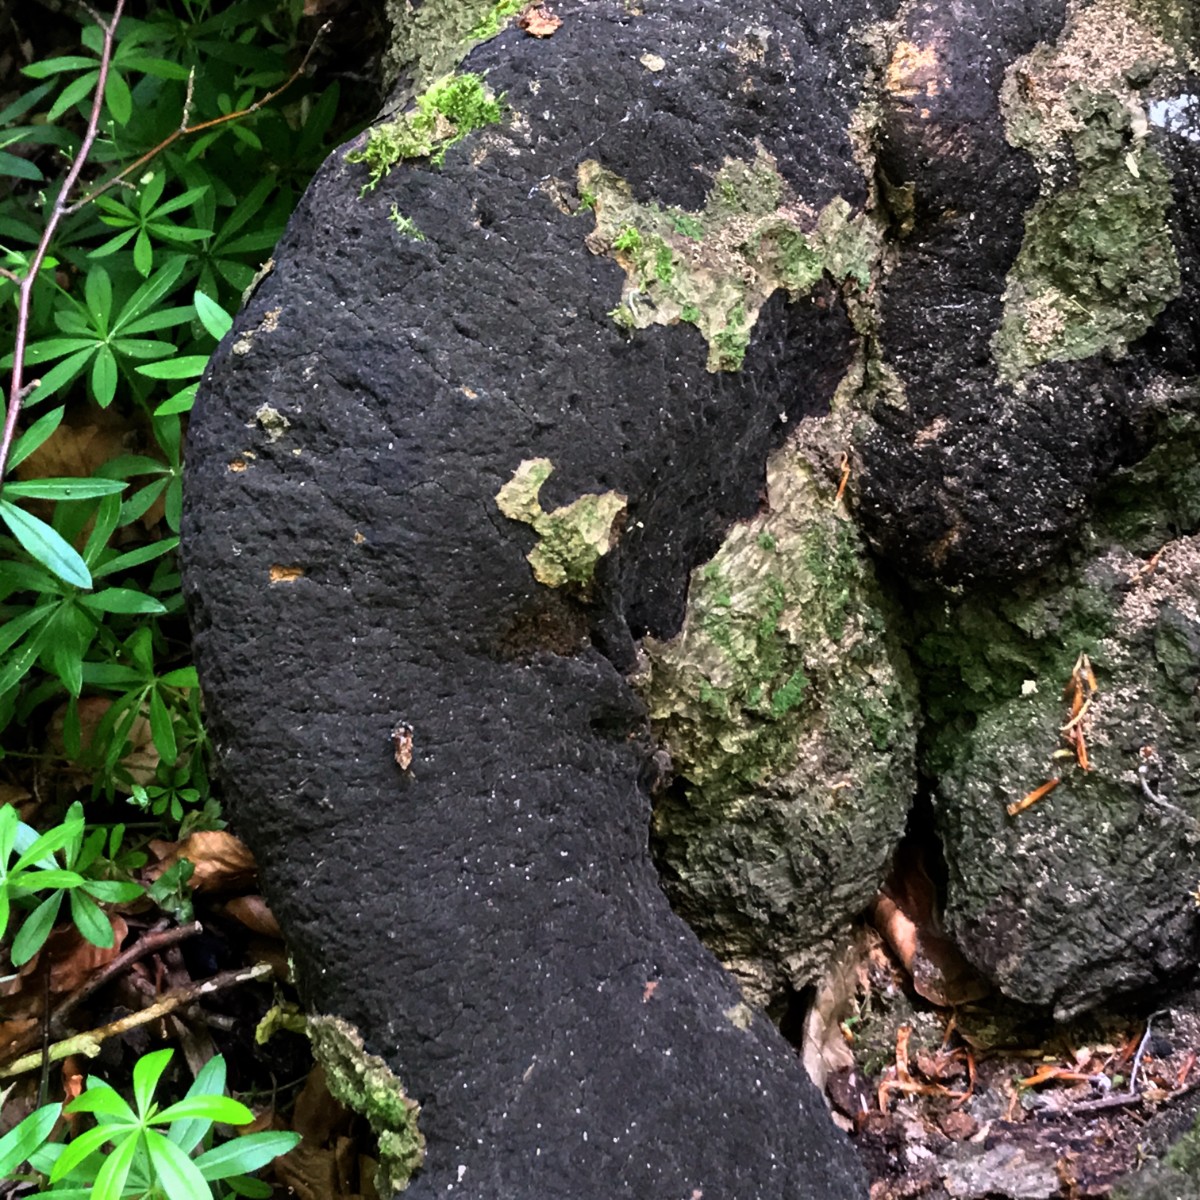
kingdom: Fungi
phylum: Ascomycota
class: Sordariomycetes
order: Xylariales
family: Diatrypaceae
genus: Eutypa
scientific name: Eutypa spinosa
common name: grov kulskorpe
